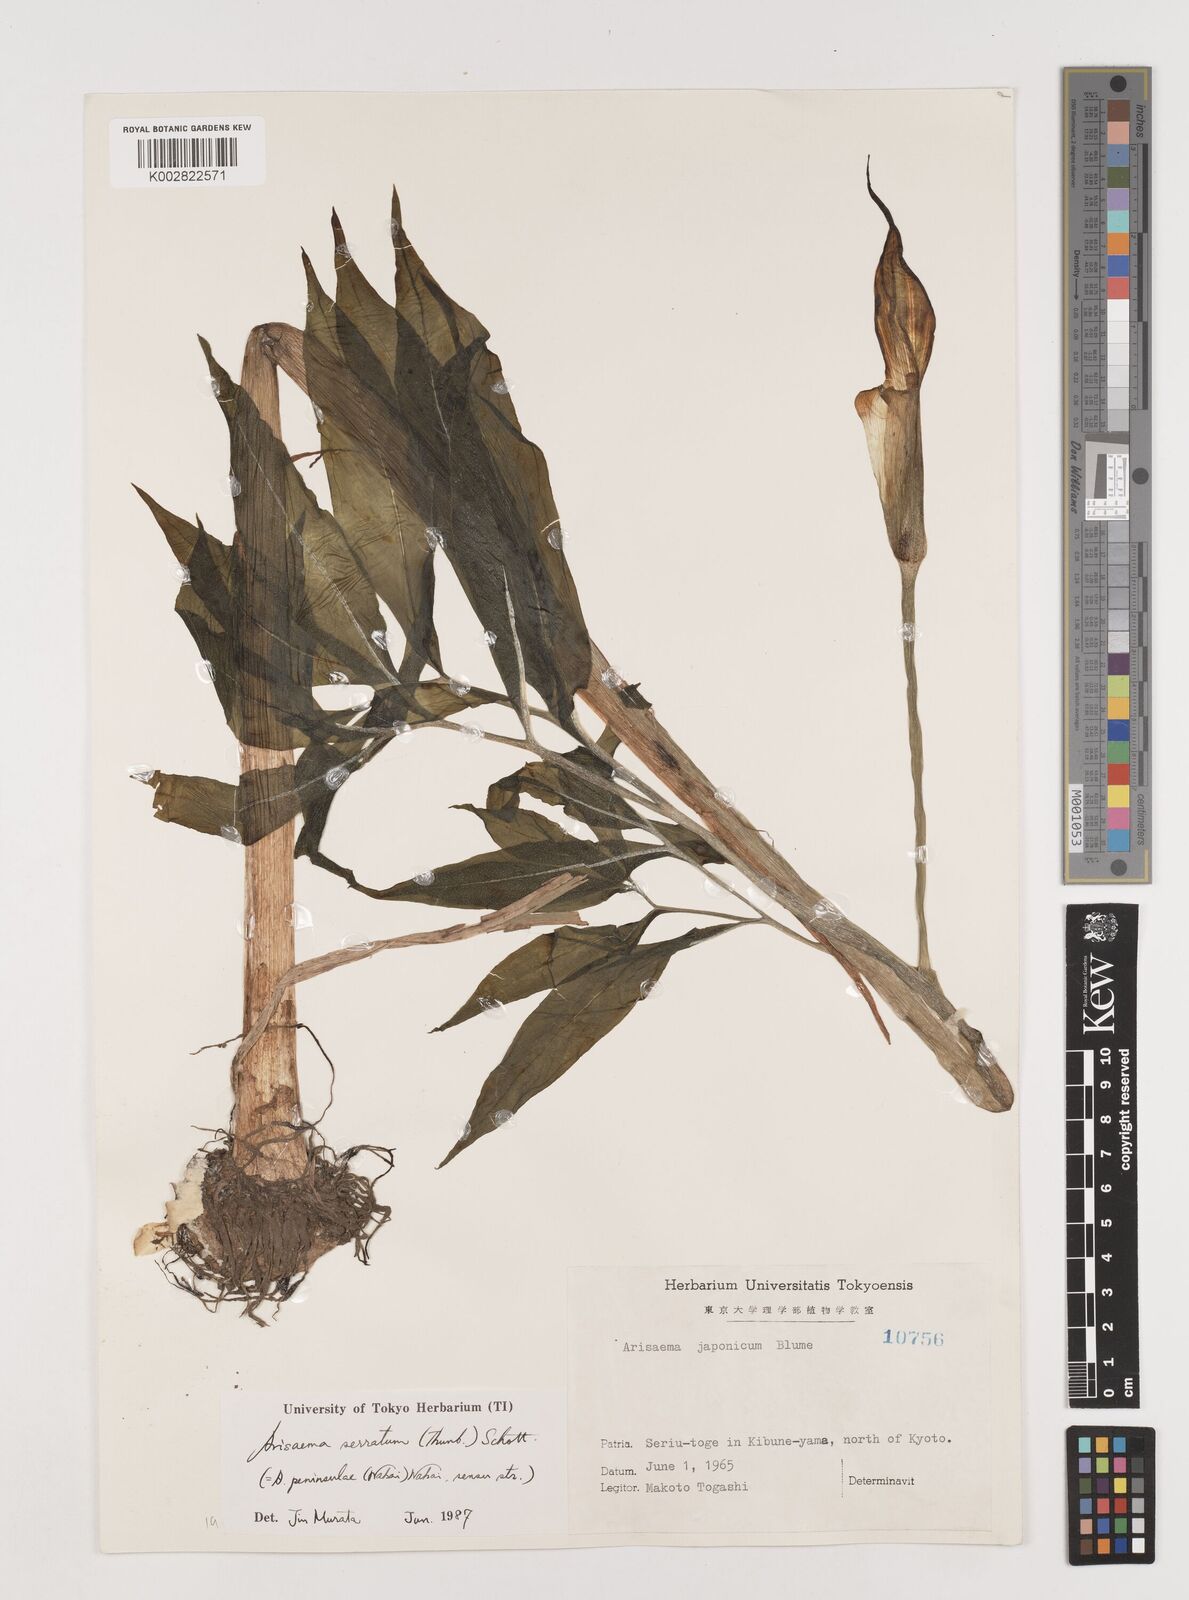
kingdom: Plantae
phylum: Tracheophyta
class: Liliopsida
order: Alismatales
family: Araceae
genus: Arisaema
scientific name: Arisaema serratum
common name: Japanese arisaema
